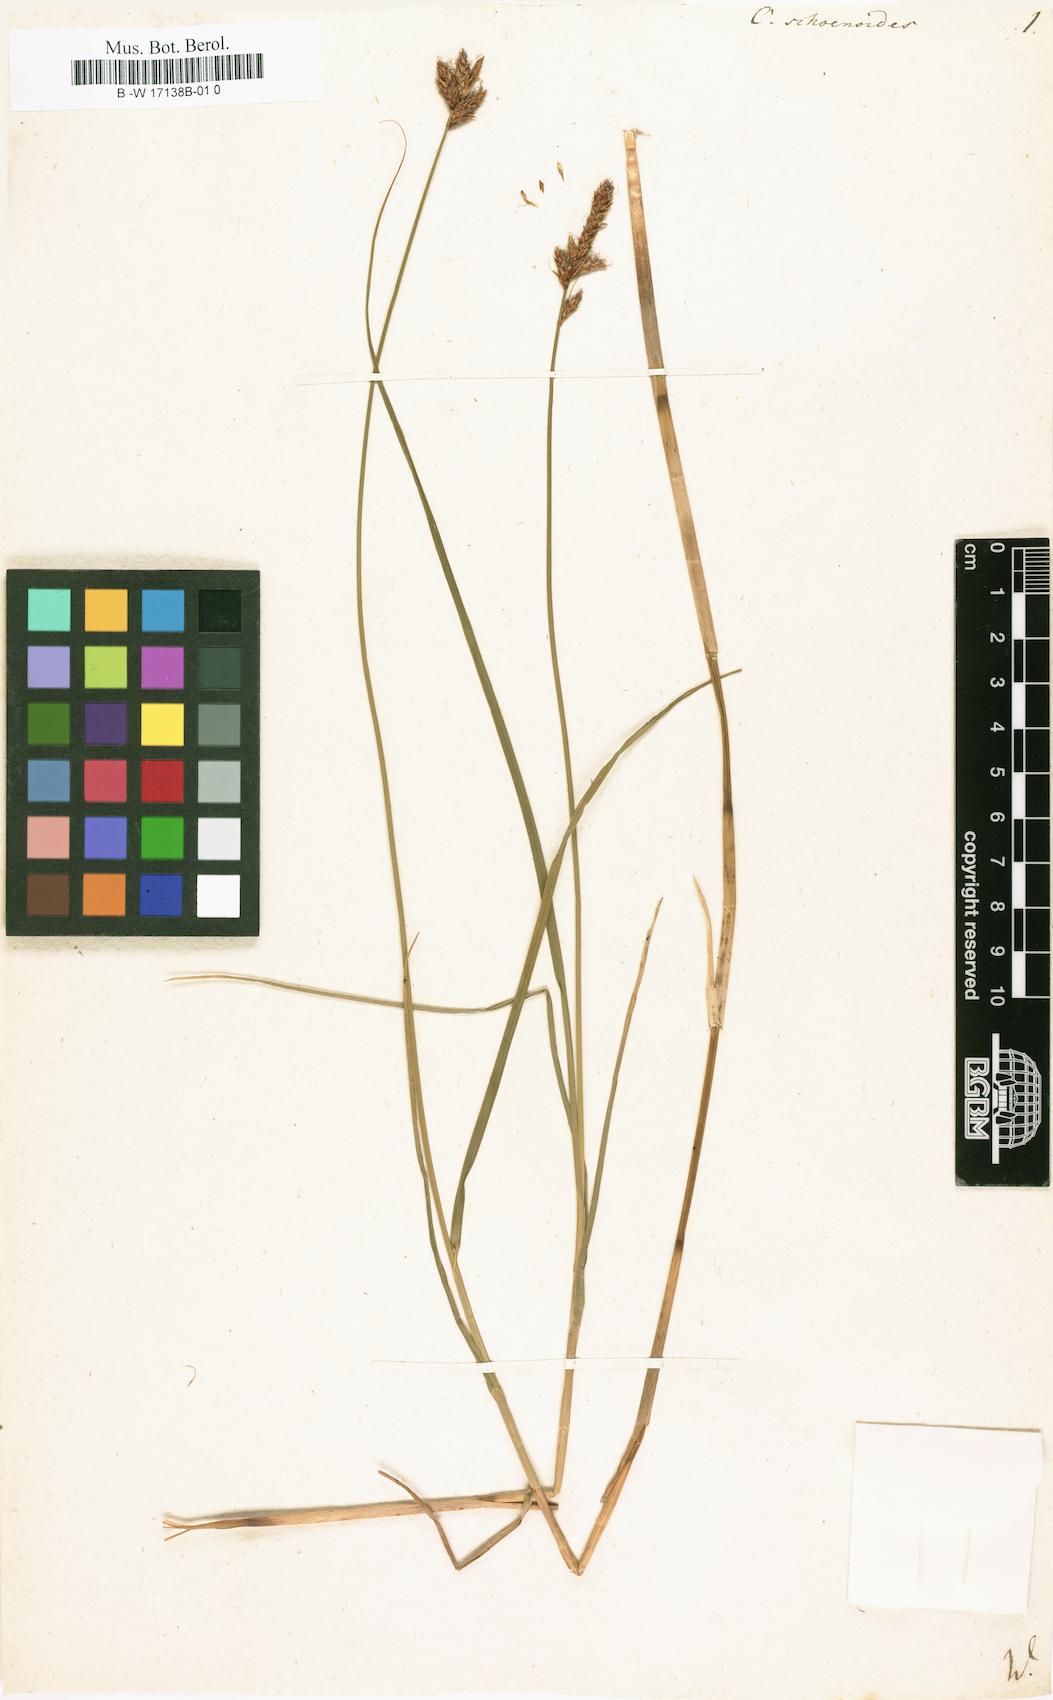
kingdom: Plantae
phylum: Tracheophyta
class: Liliopsida
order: Poales
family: Cyperaceae
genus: Carex
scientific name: Carex
